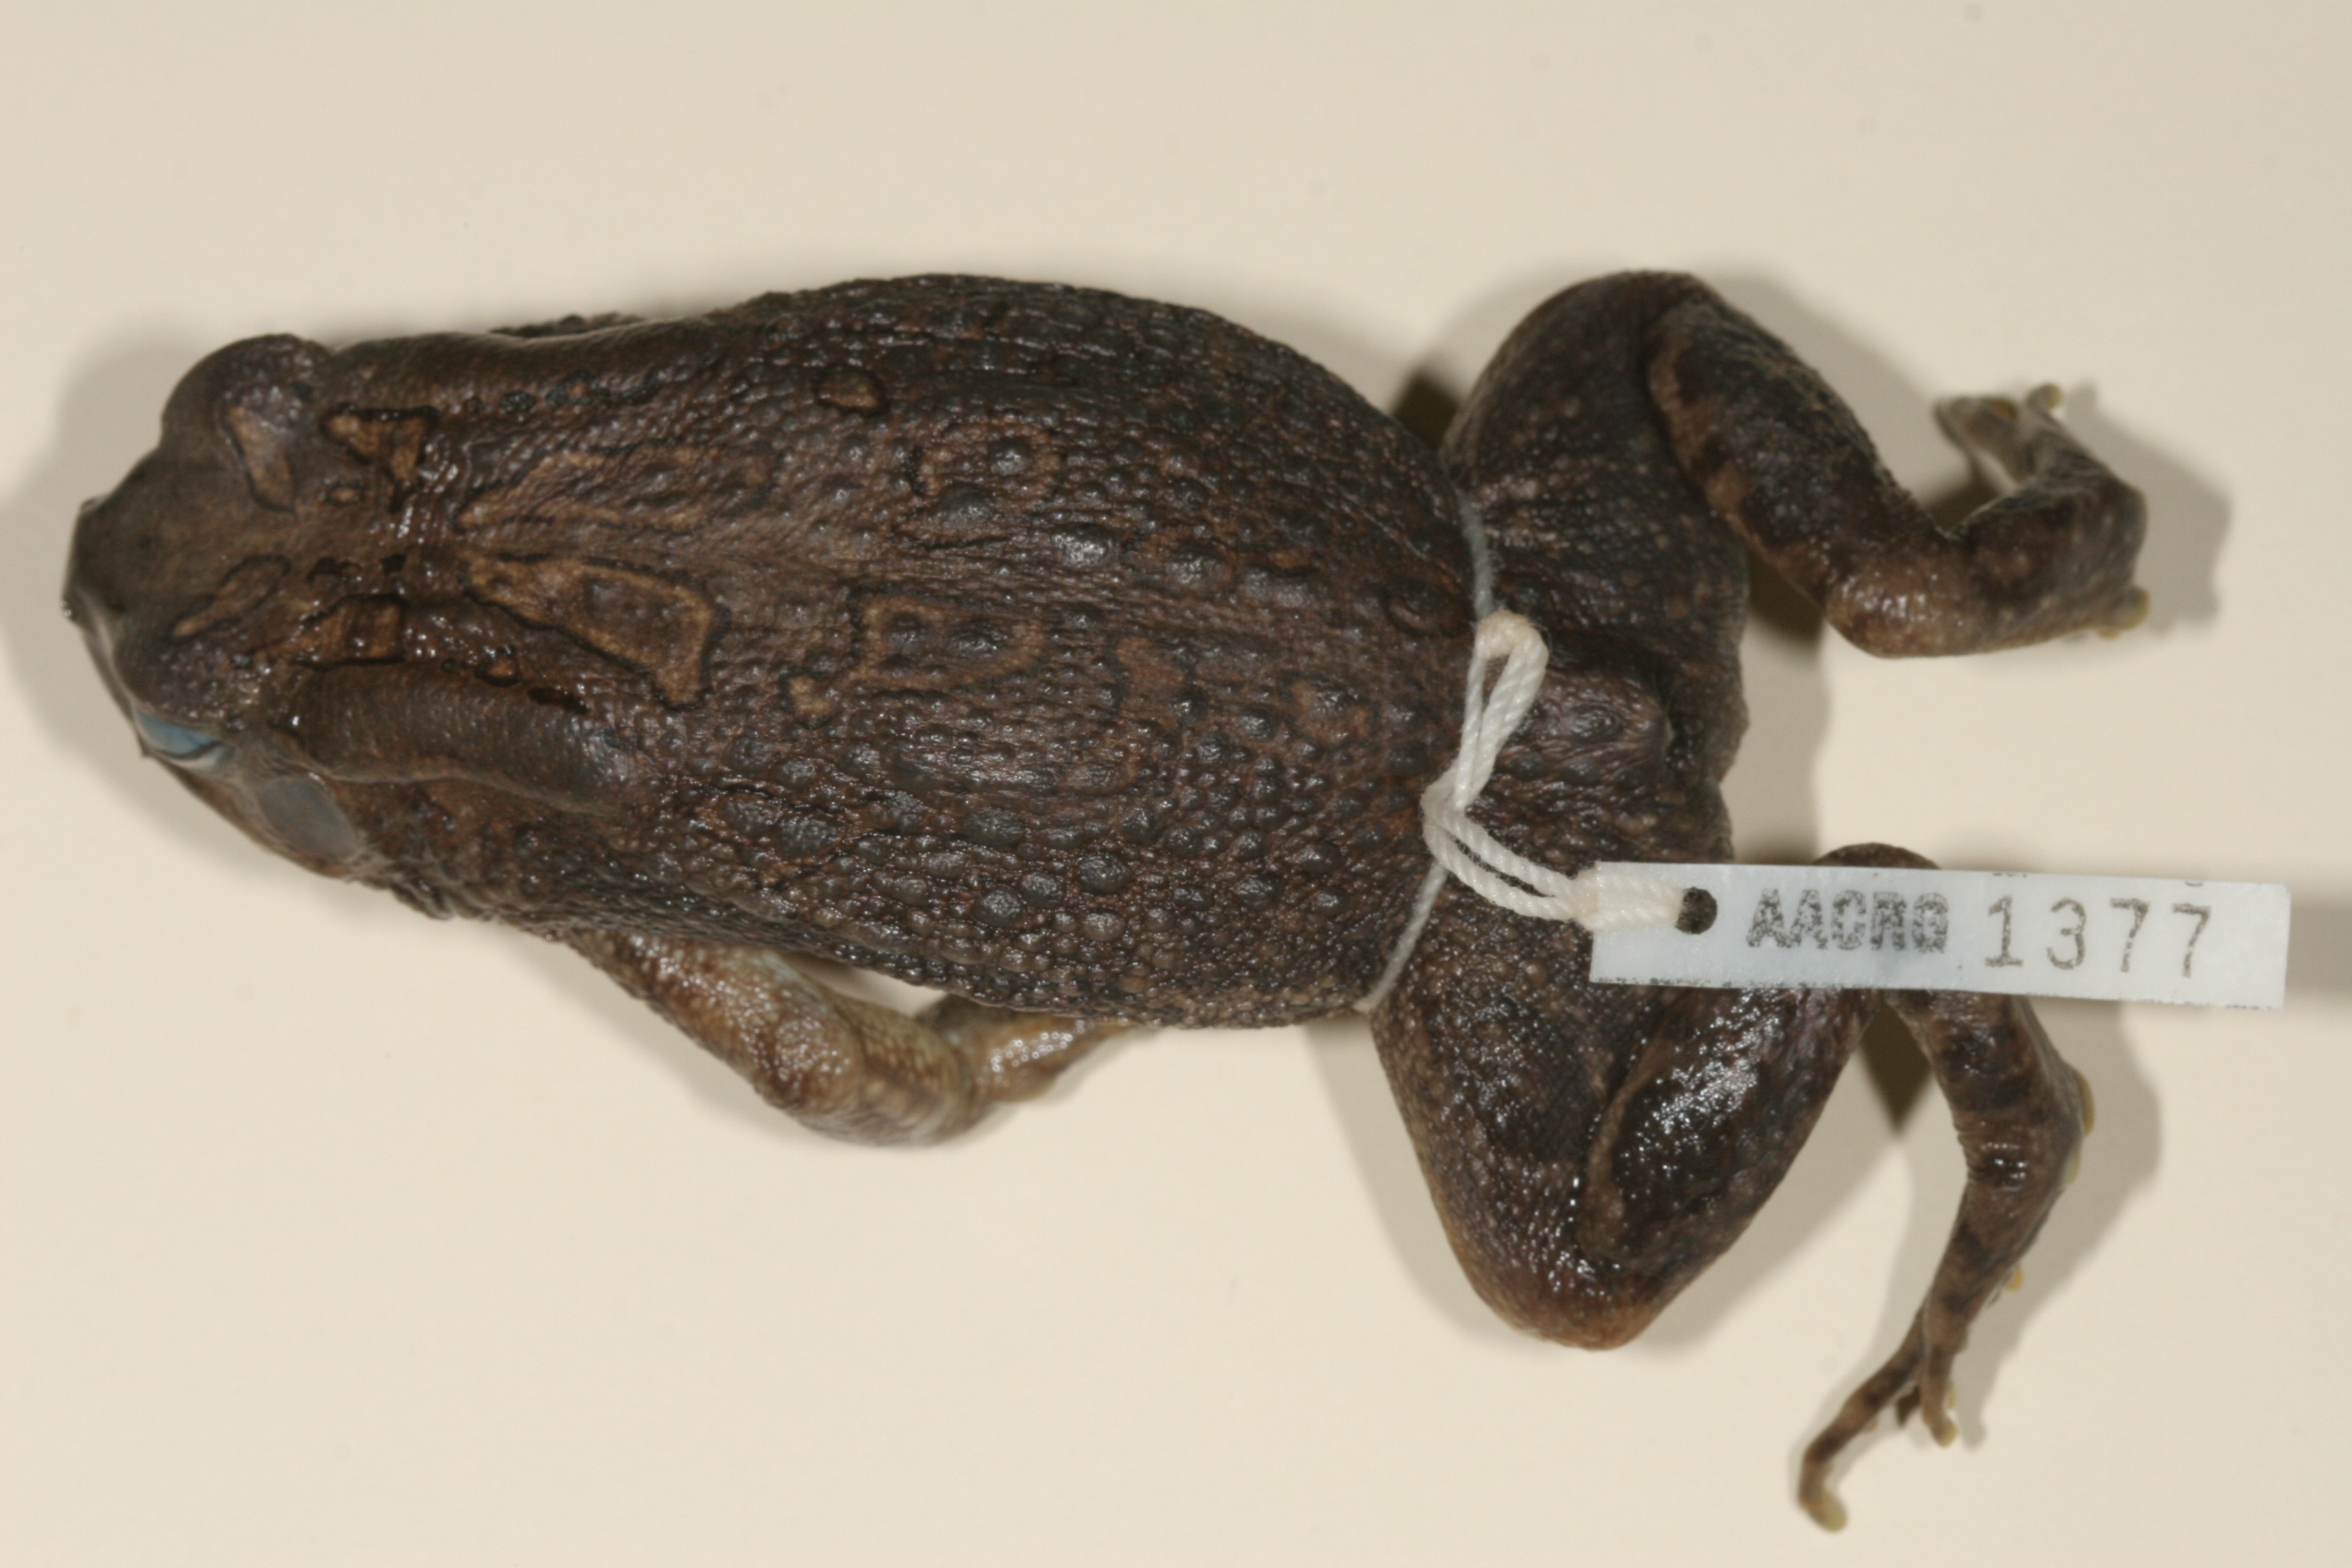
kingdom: Animalia
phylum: Chordata
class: Amphibia
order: Anura
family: Bufonidae
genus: Sclerophrys
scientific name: Sclerophrys garmani
